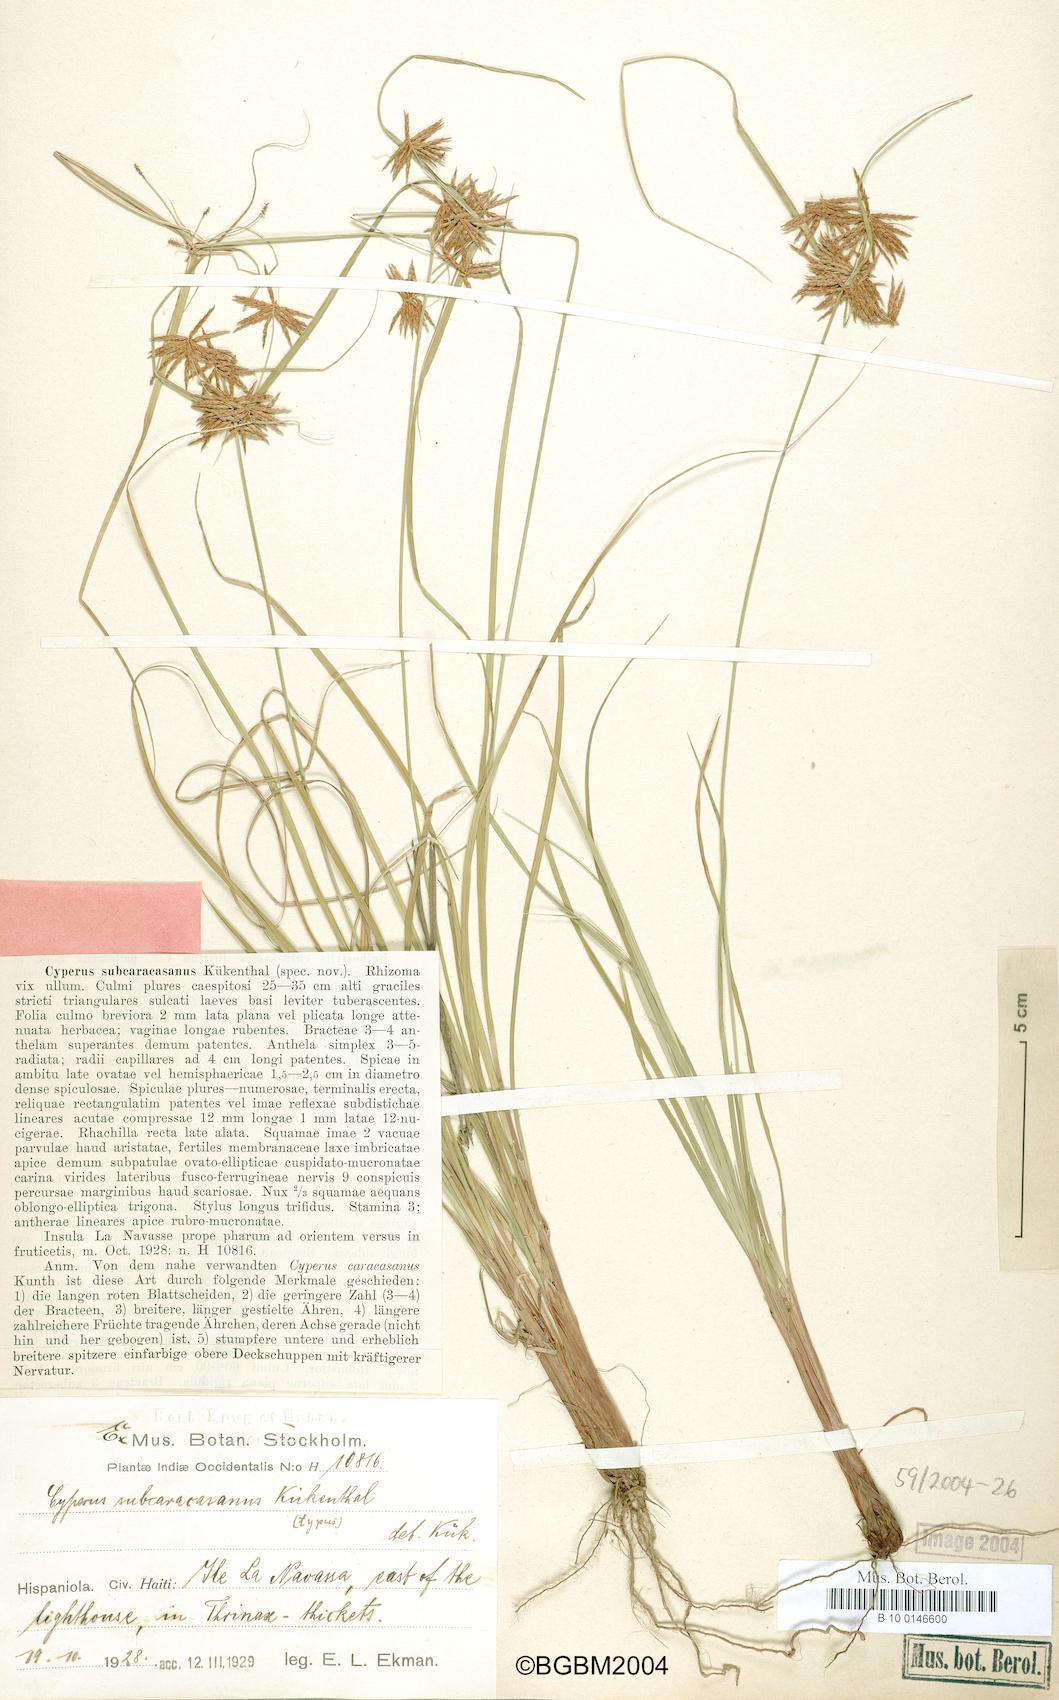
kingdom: Plantae
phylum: Tracheophyta
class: Liliopsida
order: Poales
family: Cyperaceae
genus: Cyperus
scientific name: Cyperus subcaracasanus
